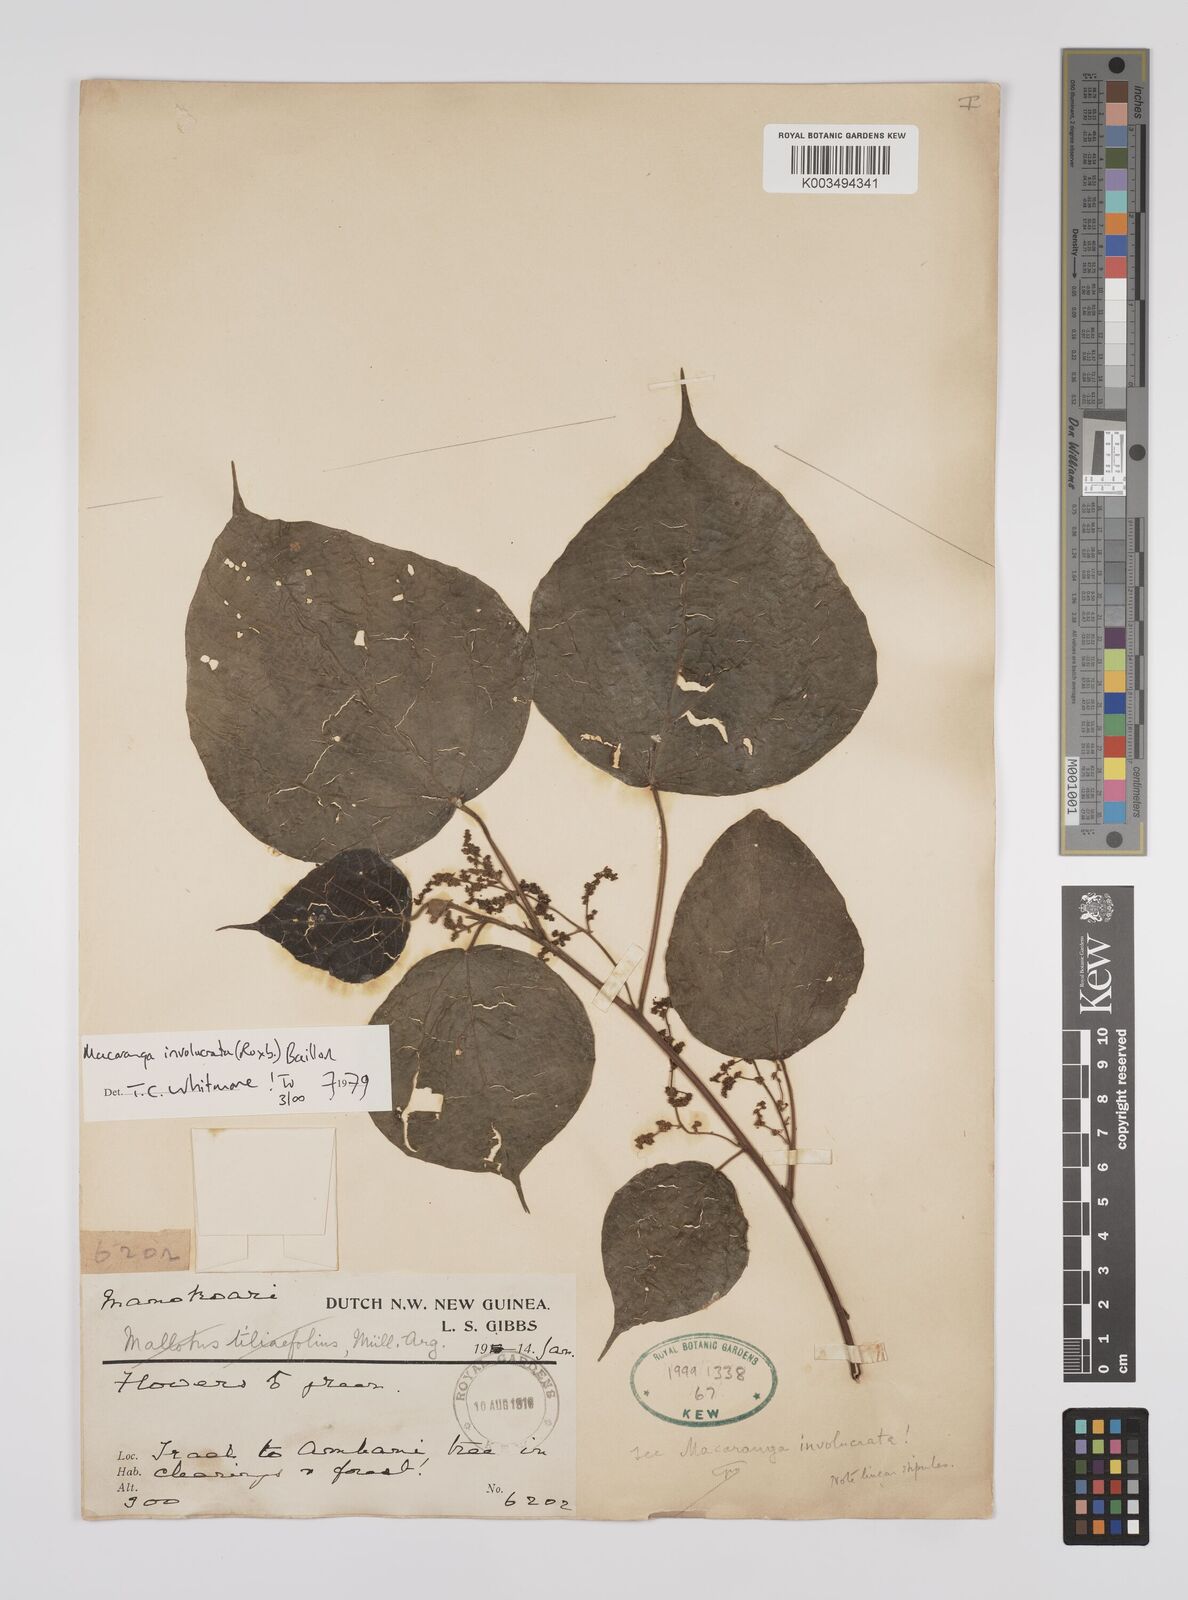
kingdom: Plantae
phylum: Tracheophyta
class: Magnoliopsida
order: Malpighiales
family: Euphorbiaceae
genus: Macaranga
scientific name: Macaranga involucrata
